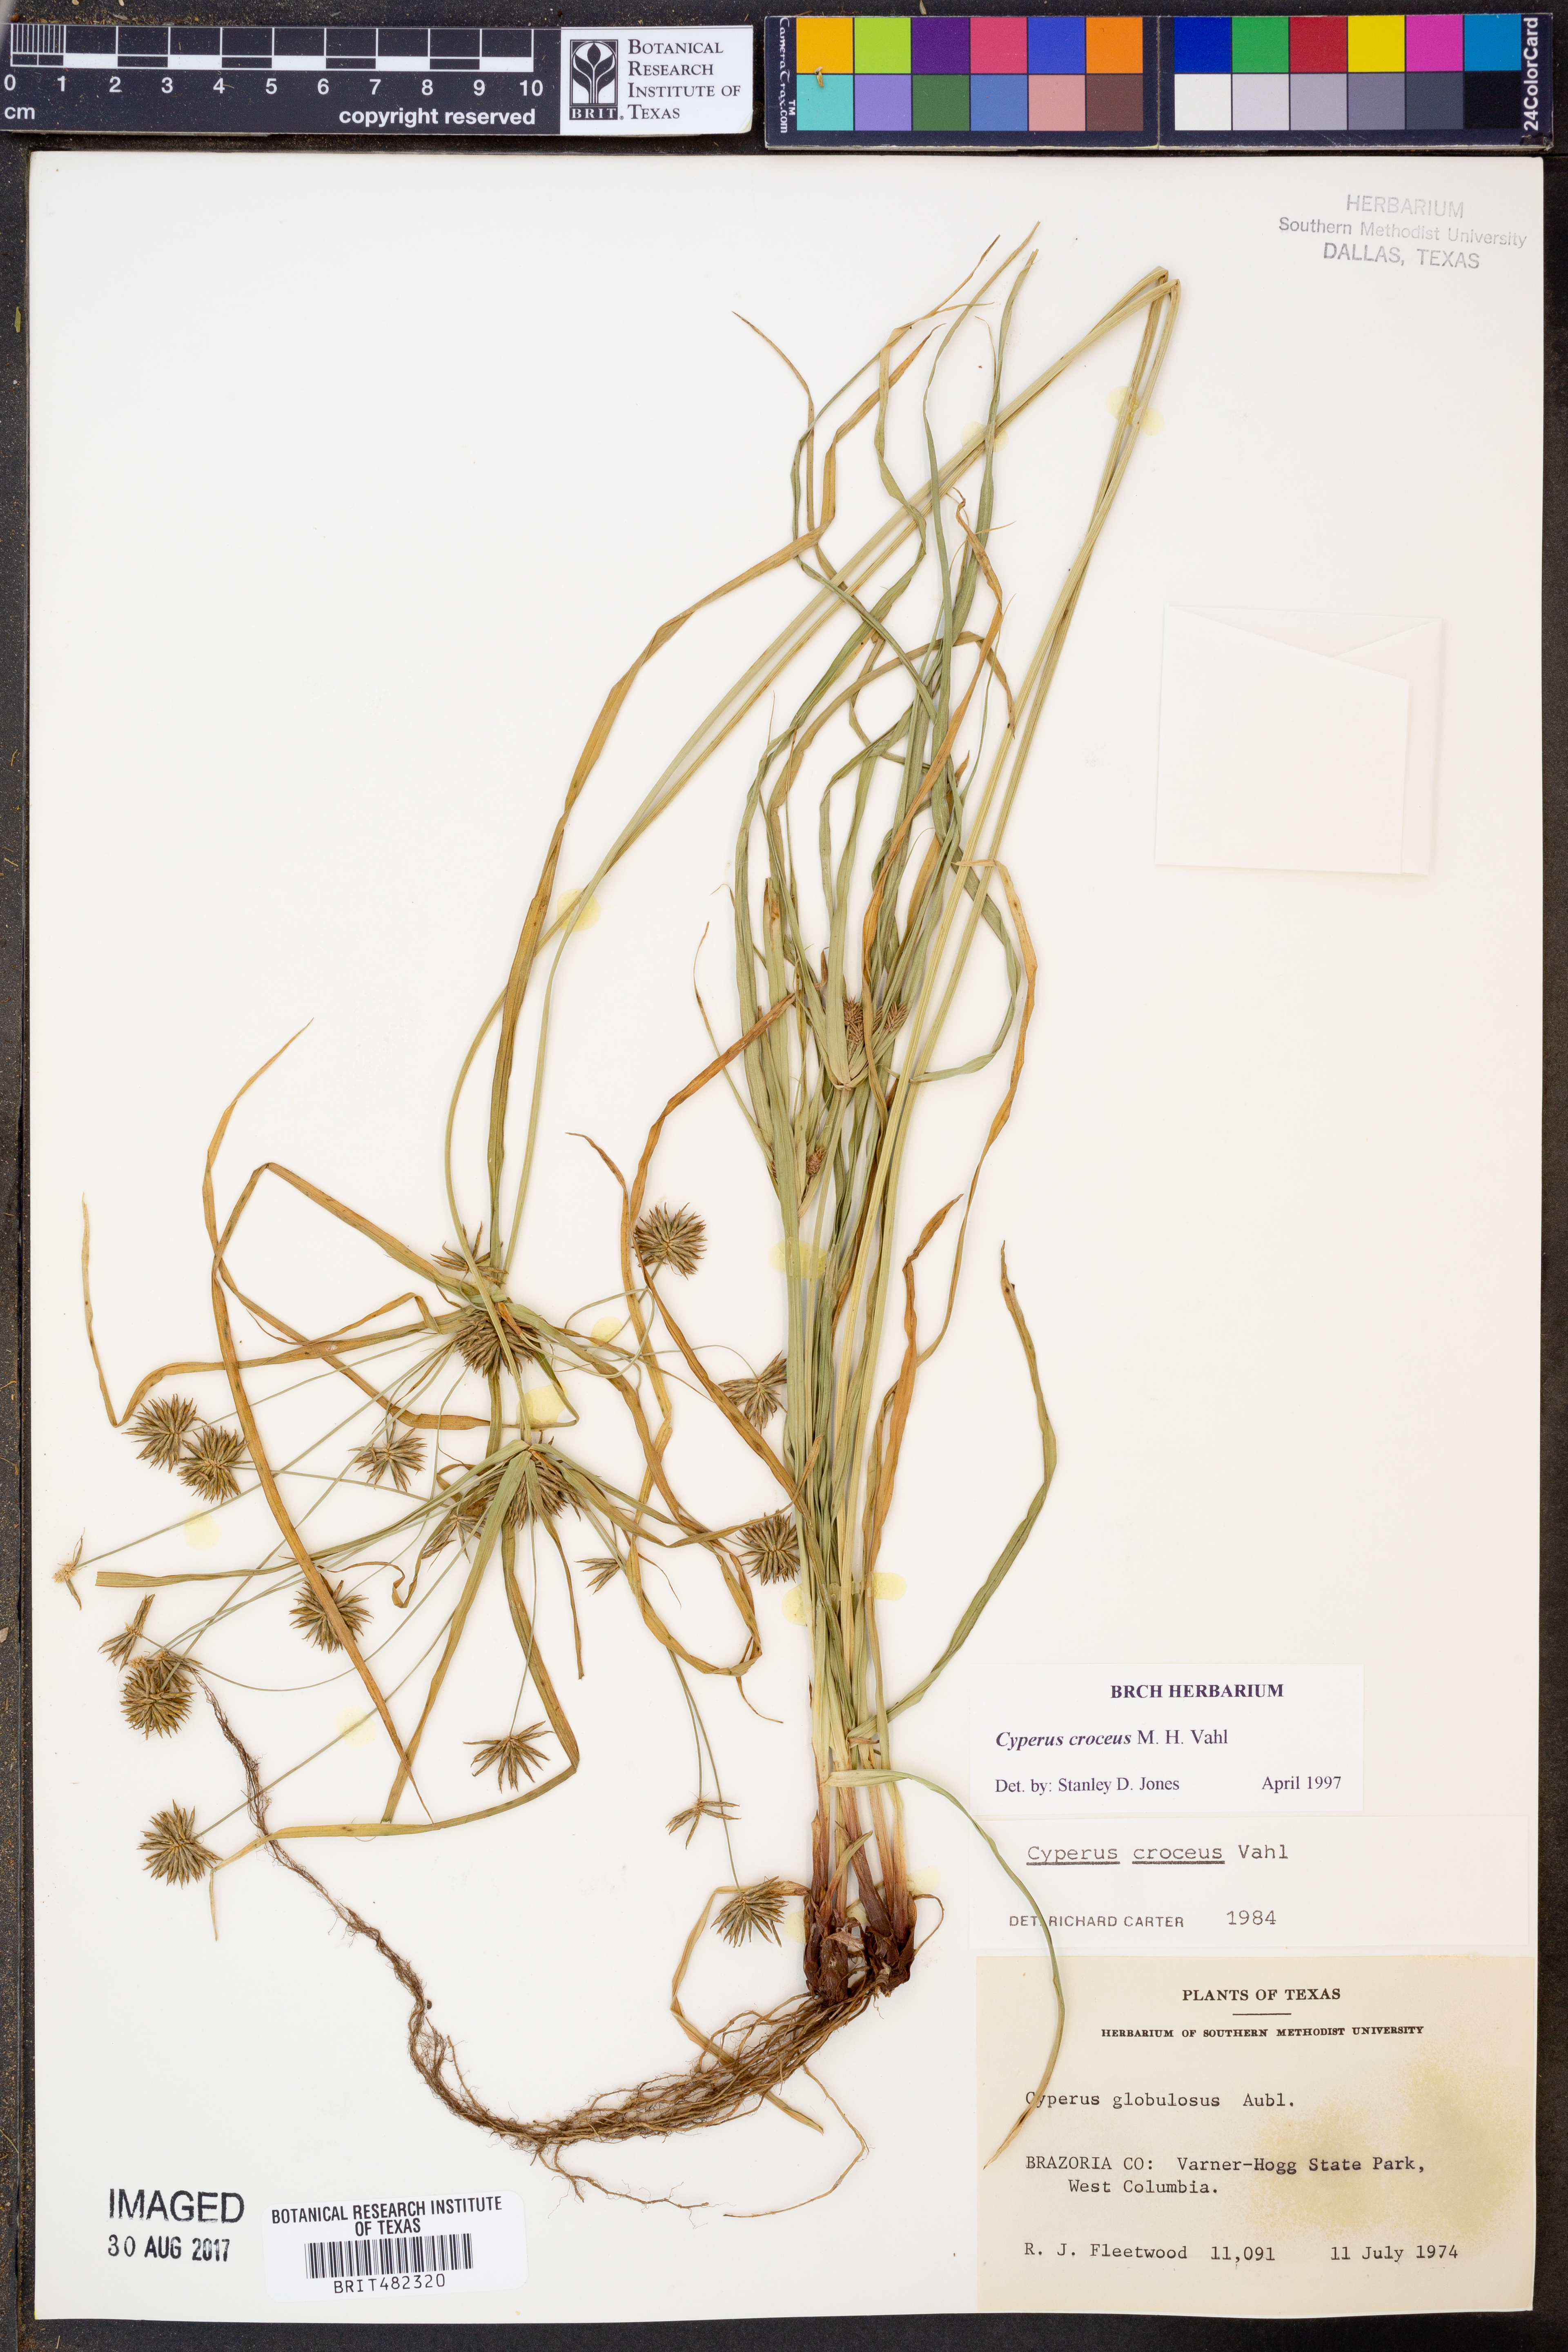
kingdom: Plantae
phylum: Tracheophyta
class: Liliopsida
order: Poales
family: Cyperaceae
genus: Cyperus
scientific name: Cyperus croceus
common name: Baldwin's flatsedge
